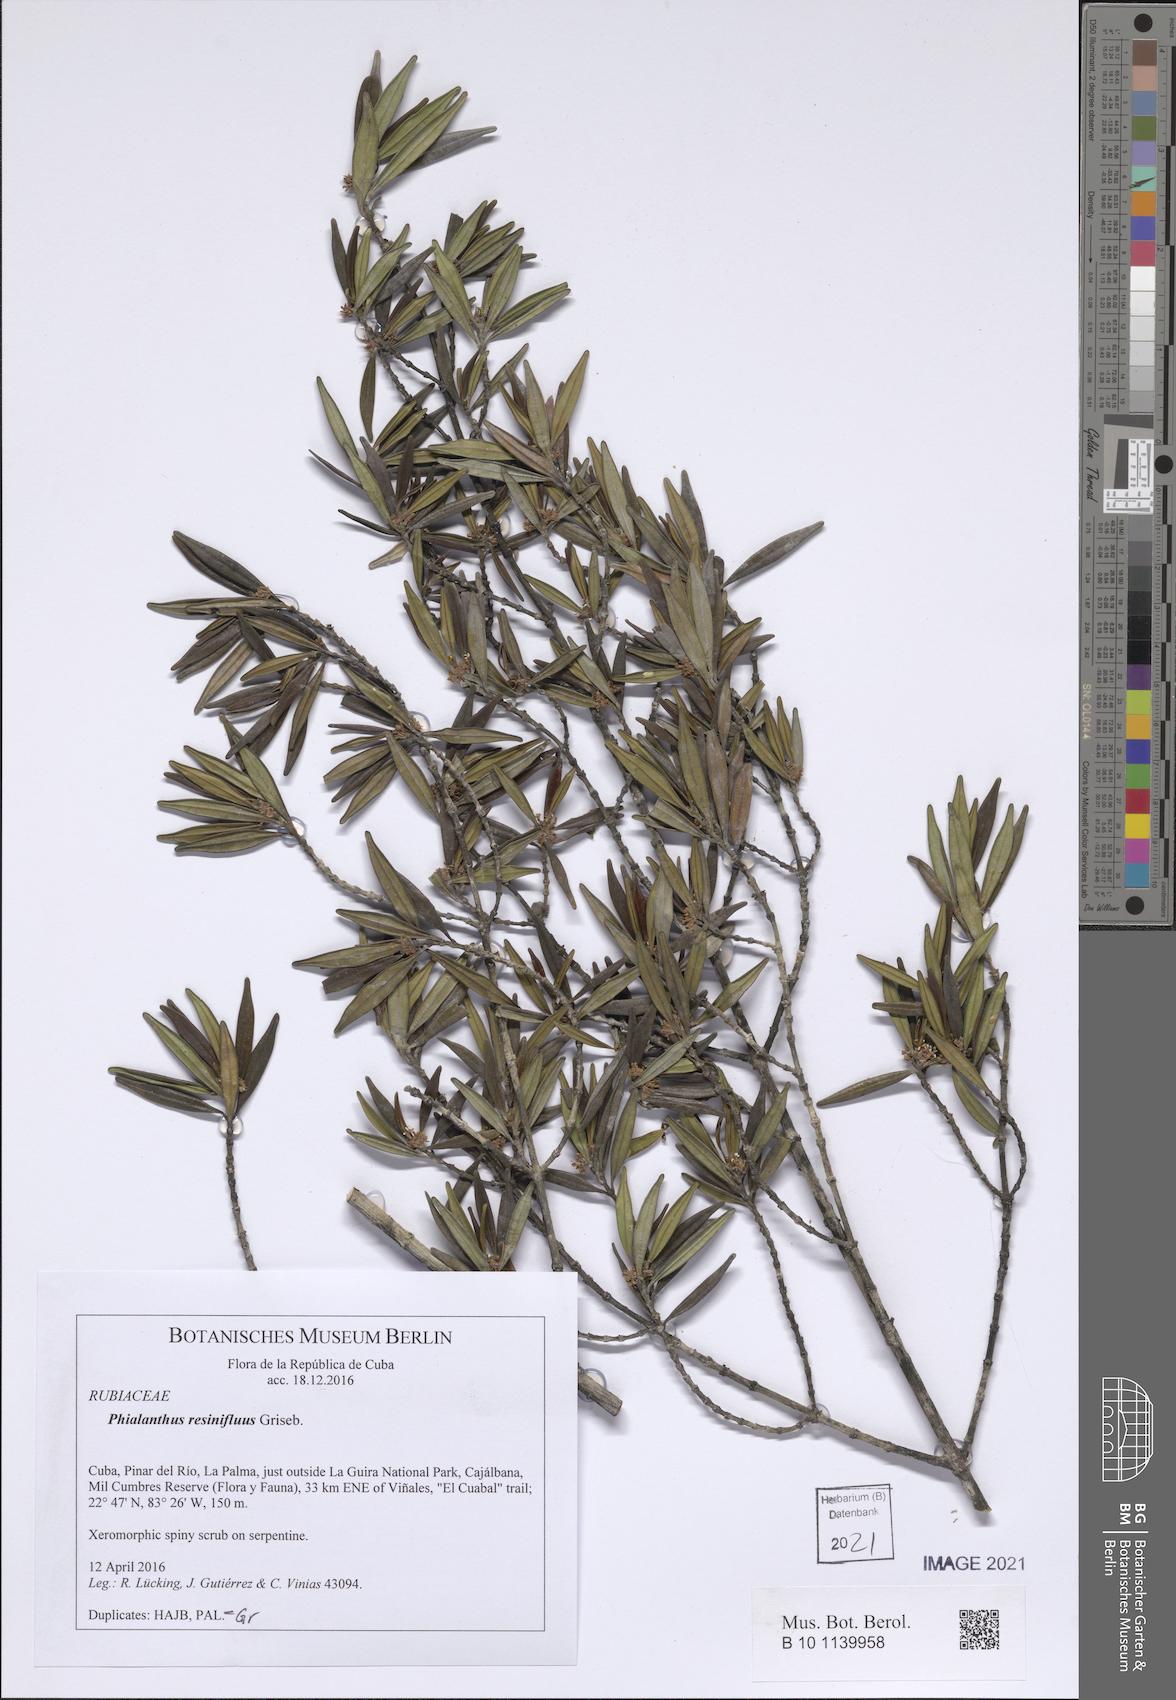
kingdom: Plantae
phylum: Tracheophyta
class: Magnoliopsida
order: Gentianales
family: Rubiaceae
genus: Phialanthus
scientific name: Phialanthus resinifluus
